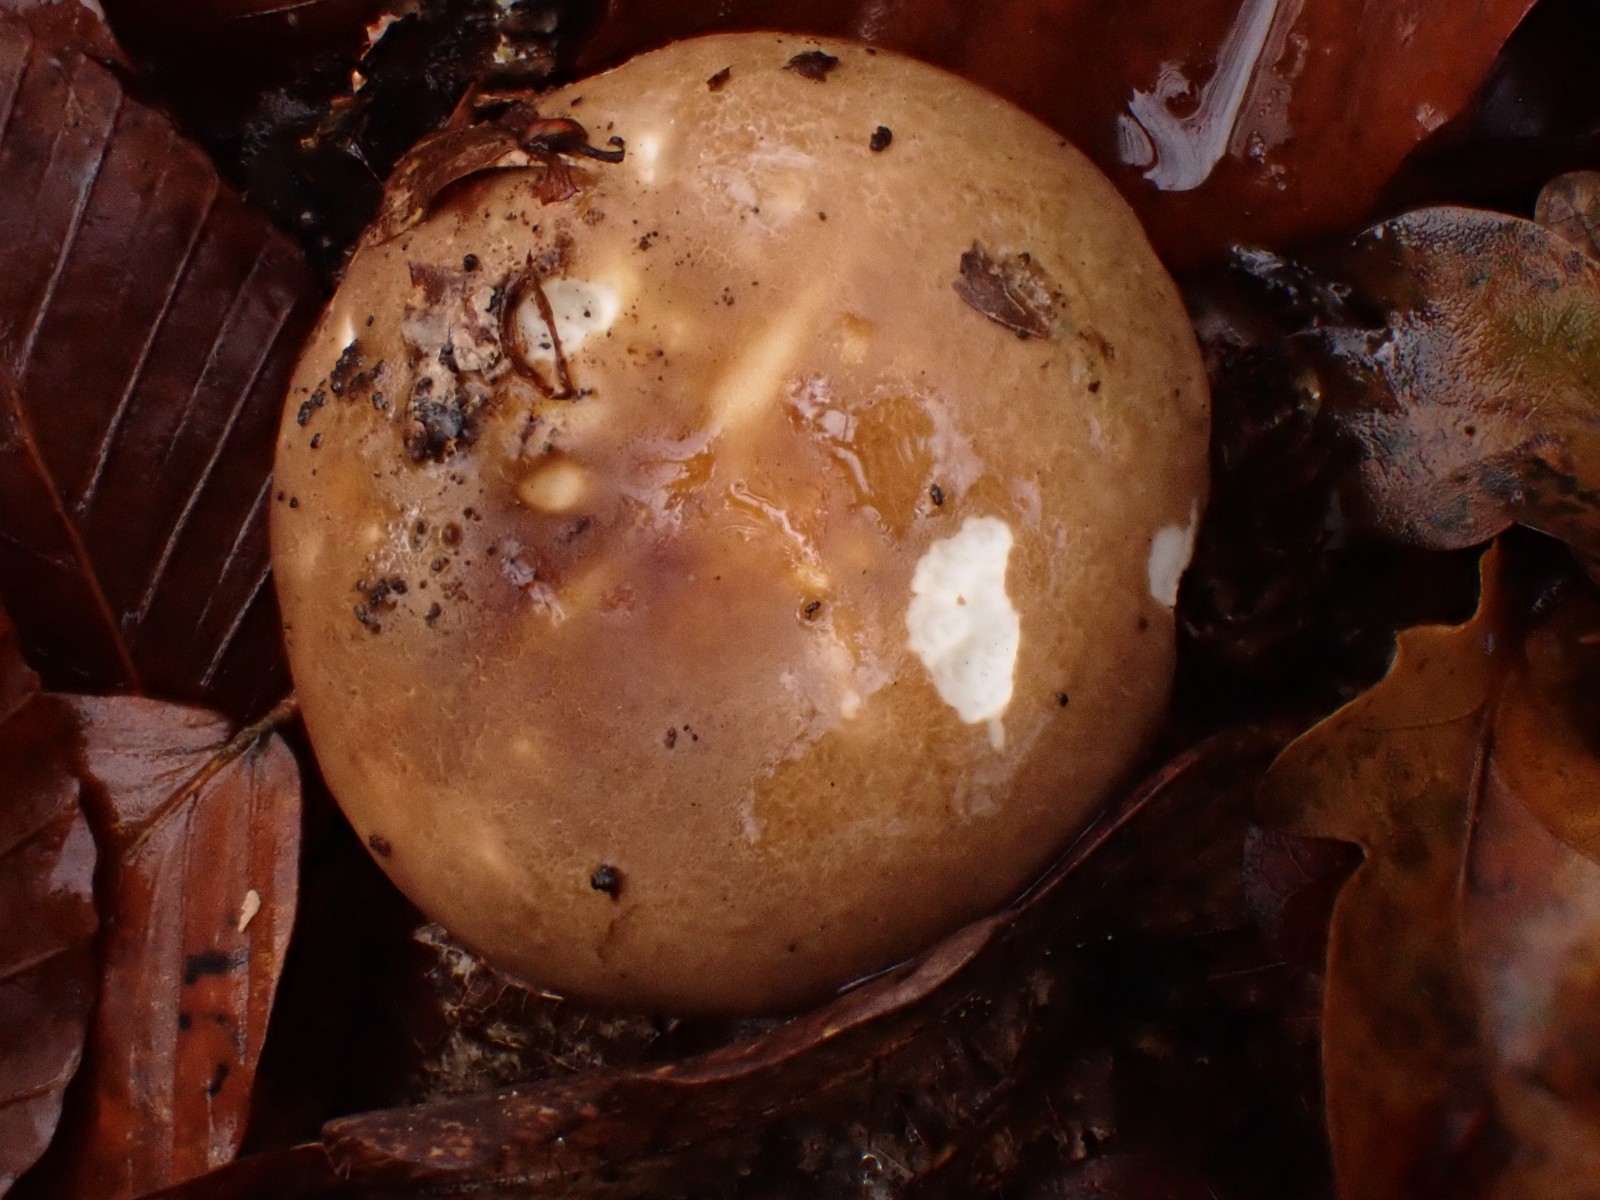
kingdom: Fungi
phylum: Basidiomycota
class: Agaricomycetes
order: Russulales
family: Russulaceae
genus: Russula
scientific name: Russula
